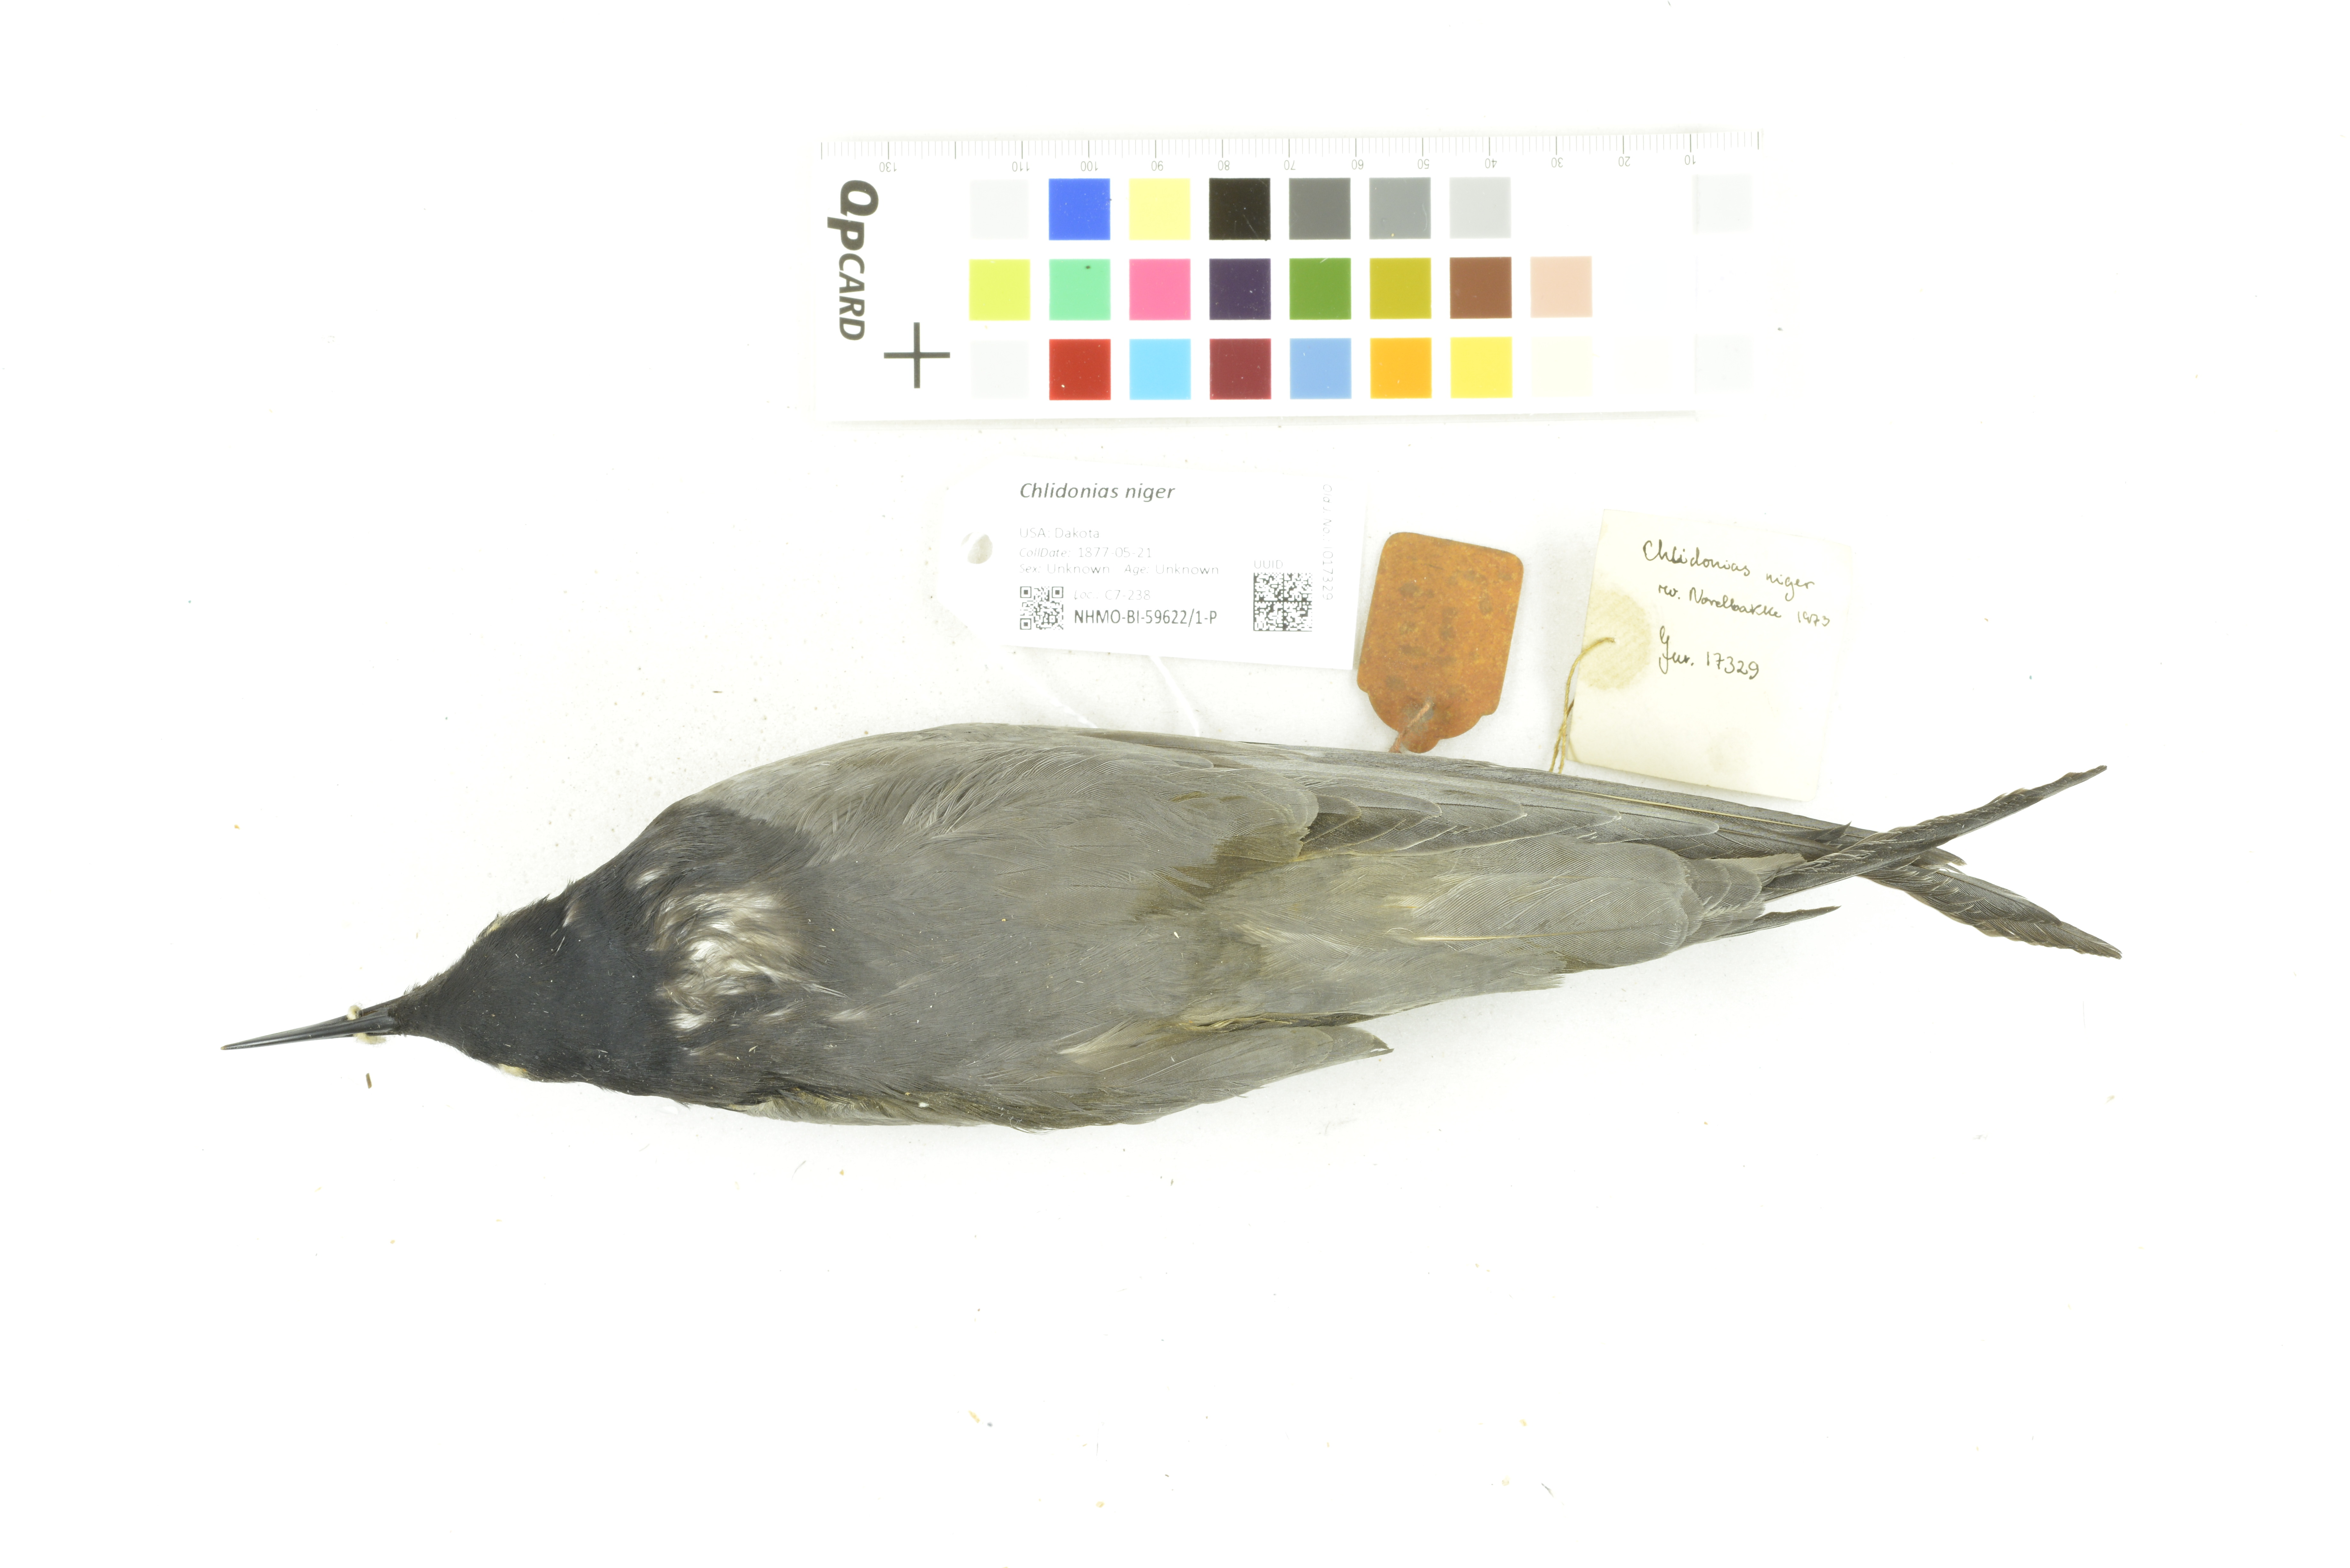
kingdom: Animalia
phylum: Chordata
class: Aves
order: Charadriiformes
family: Laridae
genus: Chlidonias
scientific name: Chlidonias niger
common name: Black tern
